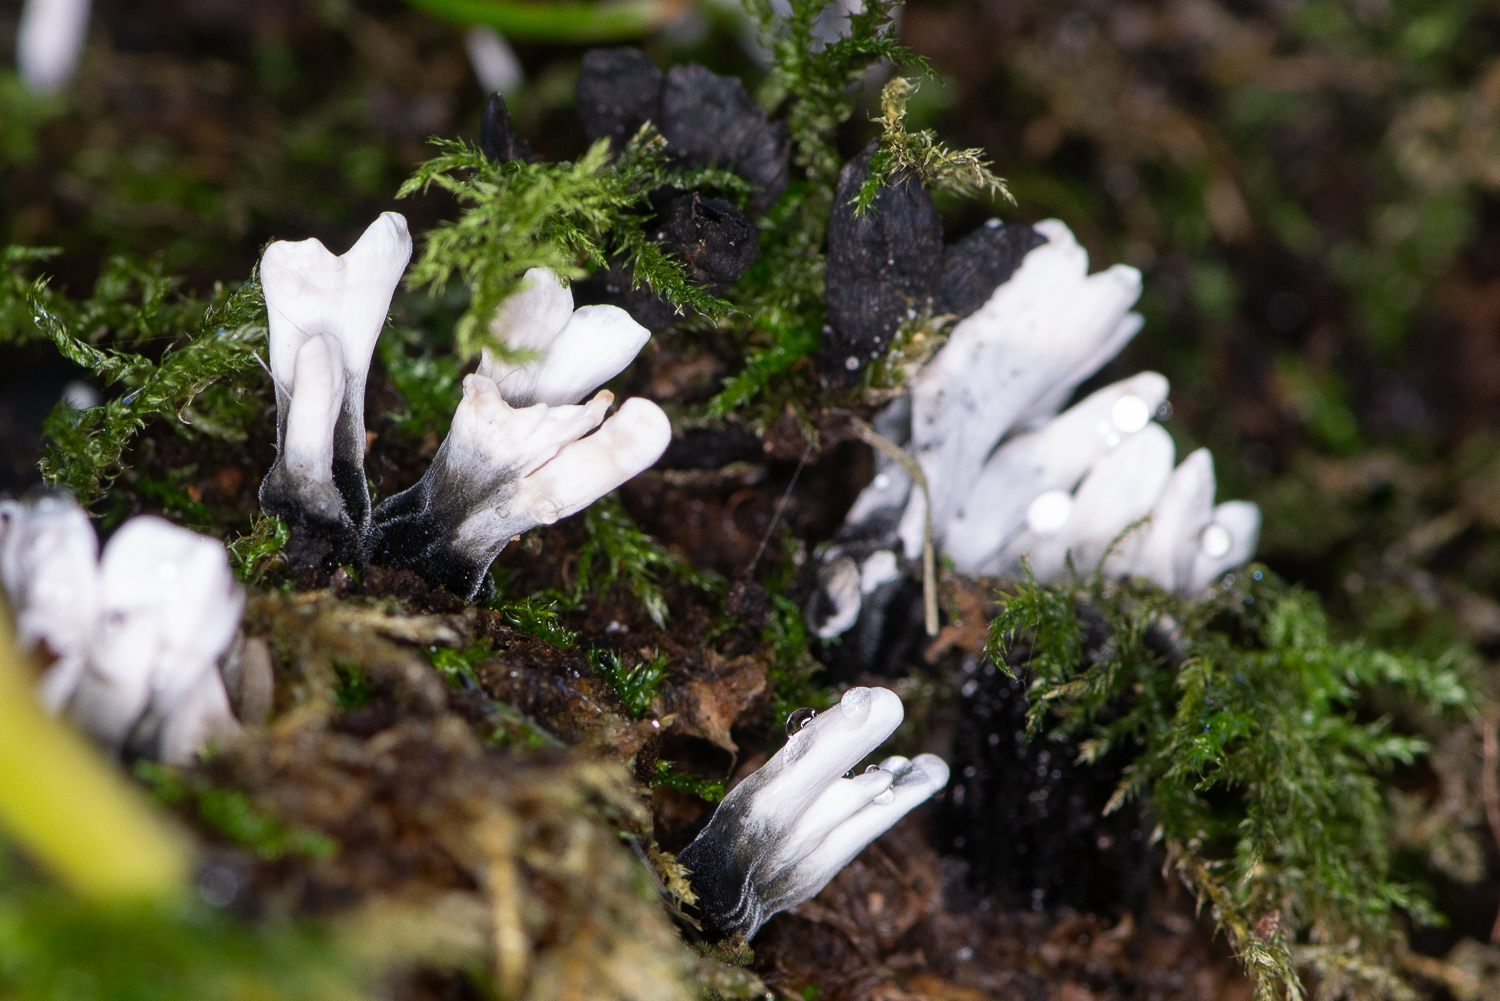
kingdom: Fungi
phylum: Ascomycota
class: Sordariomycetes
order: Xylariales
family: Xylariaceae
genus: Xylaria
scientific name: Xylaria hypoxylon
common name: grenet stødsvamp
